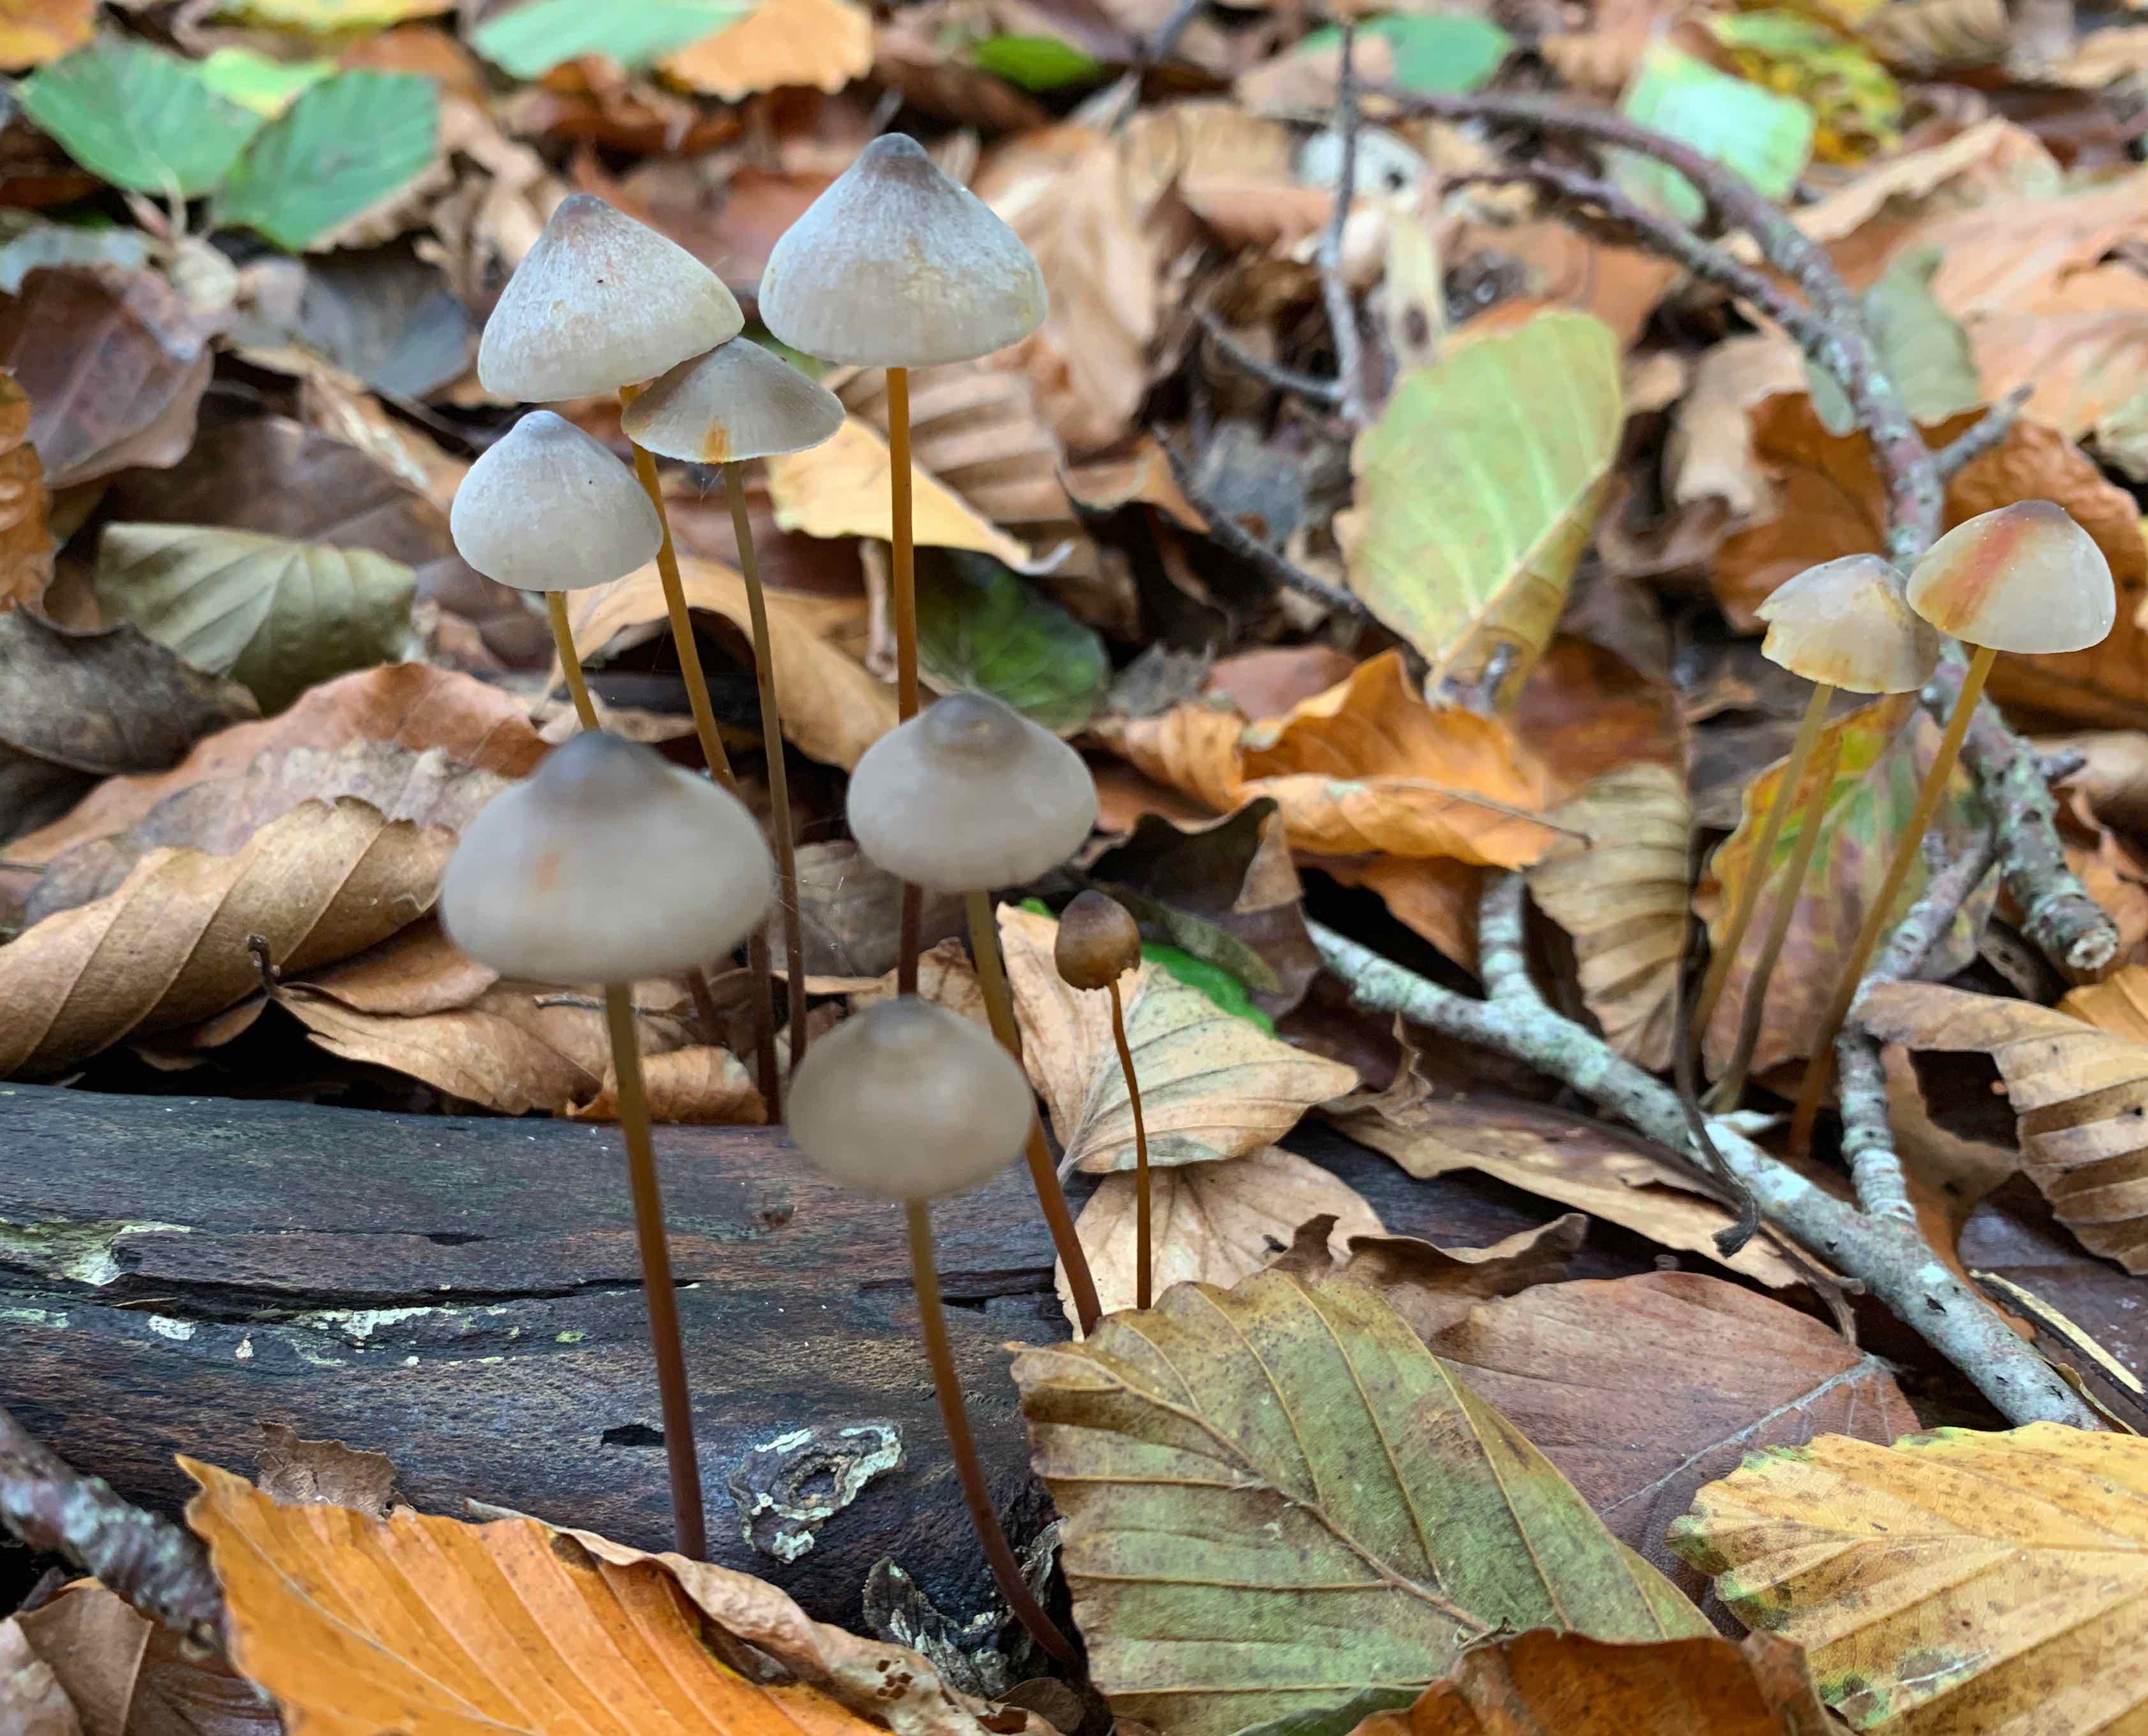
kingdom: Fungi
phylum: Basidiomycota
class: Agaricomycetes
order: Agaricales
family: Mycenaceae
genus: Mycena
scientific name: Mycena crocata
